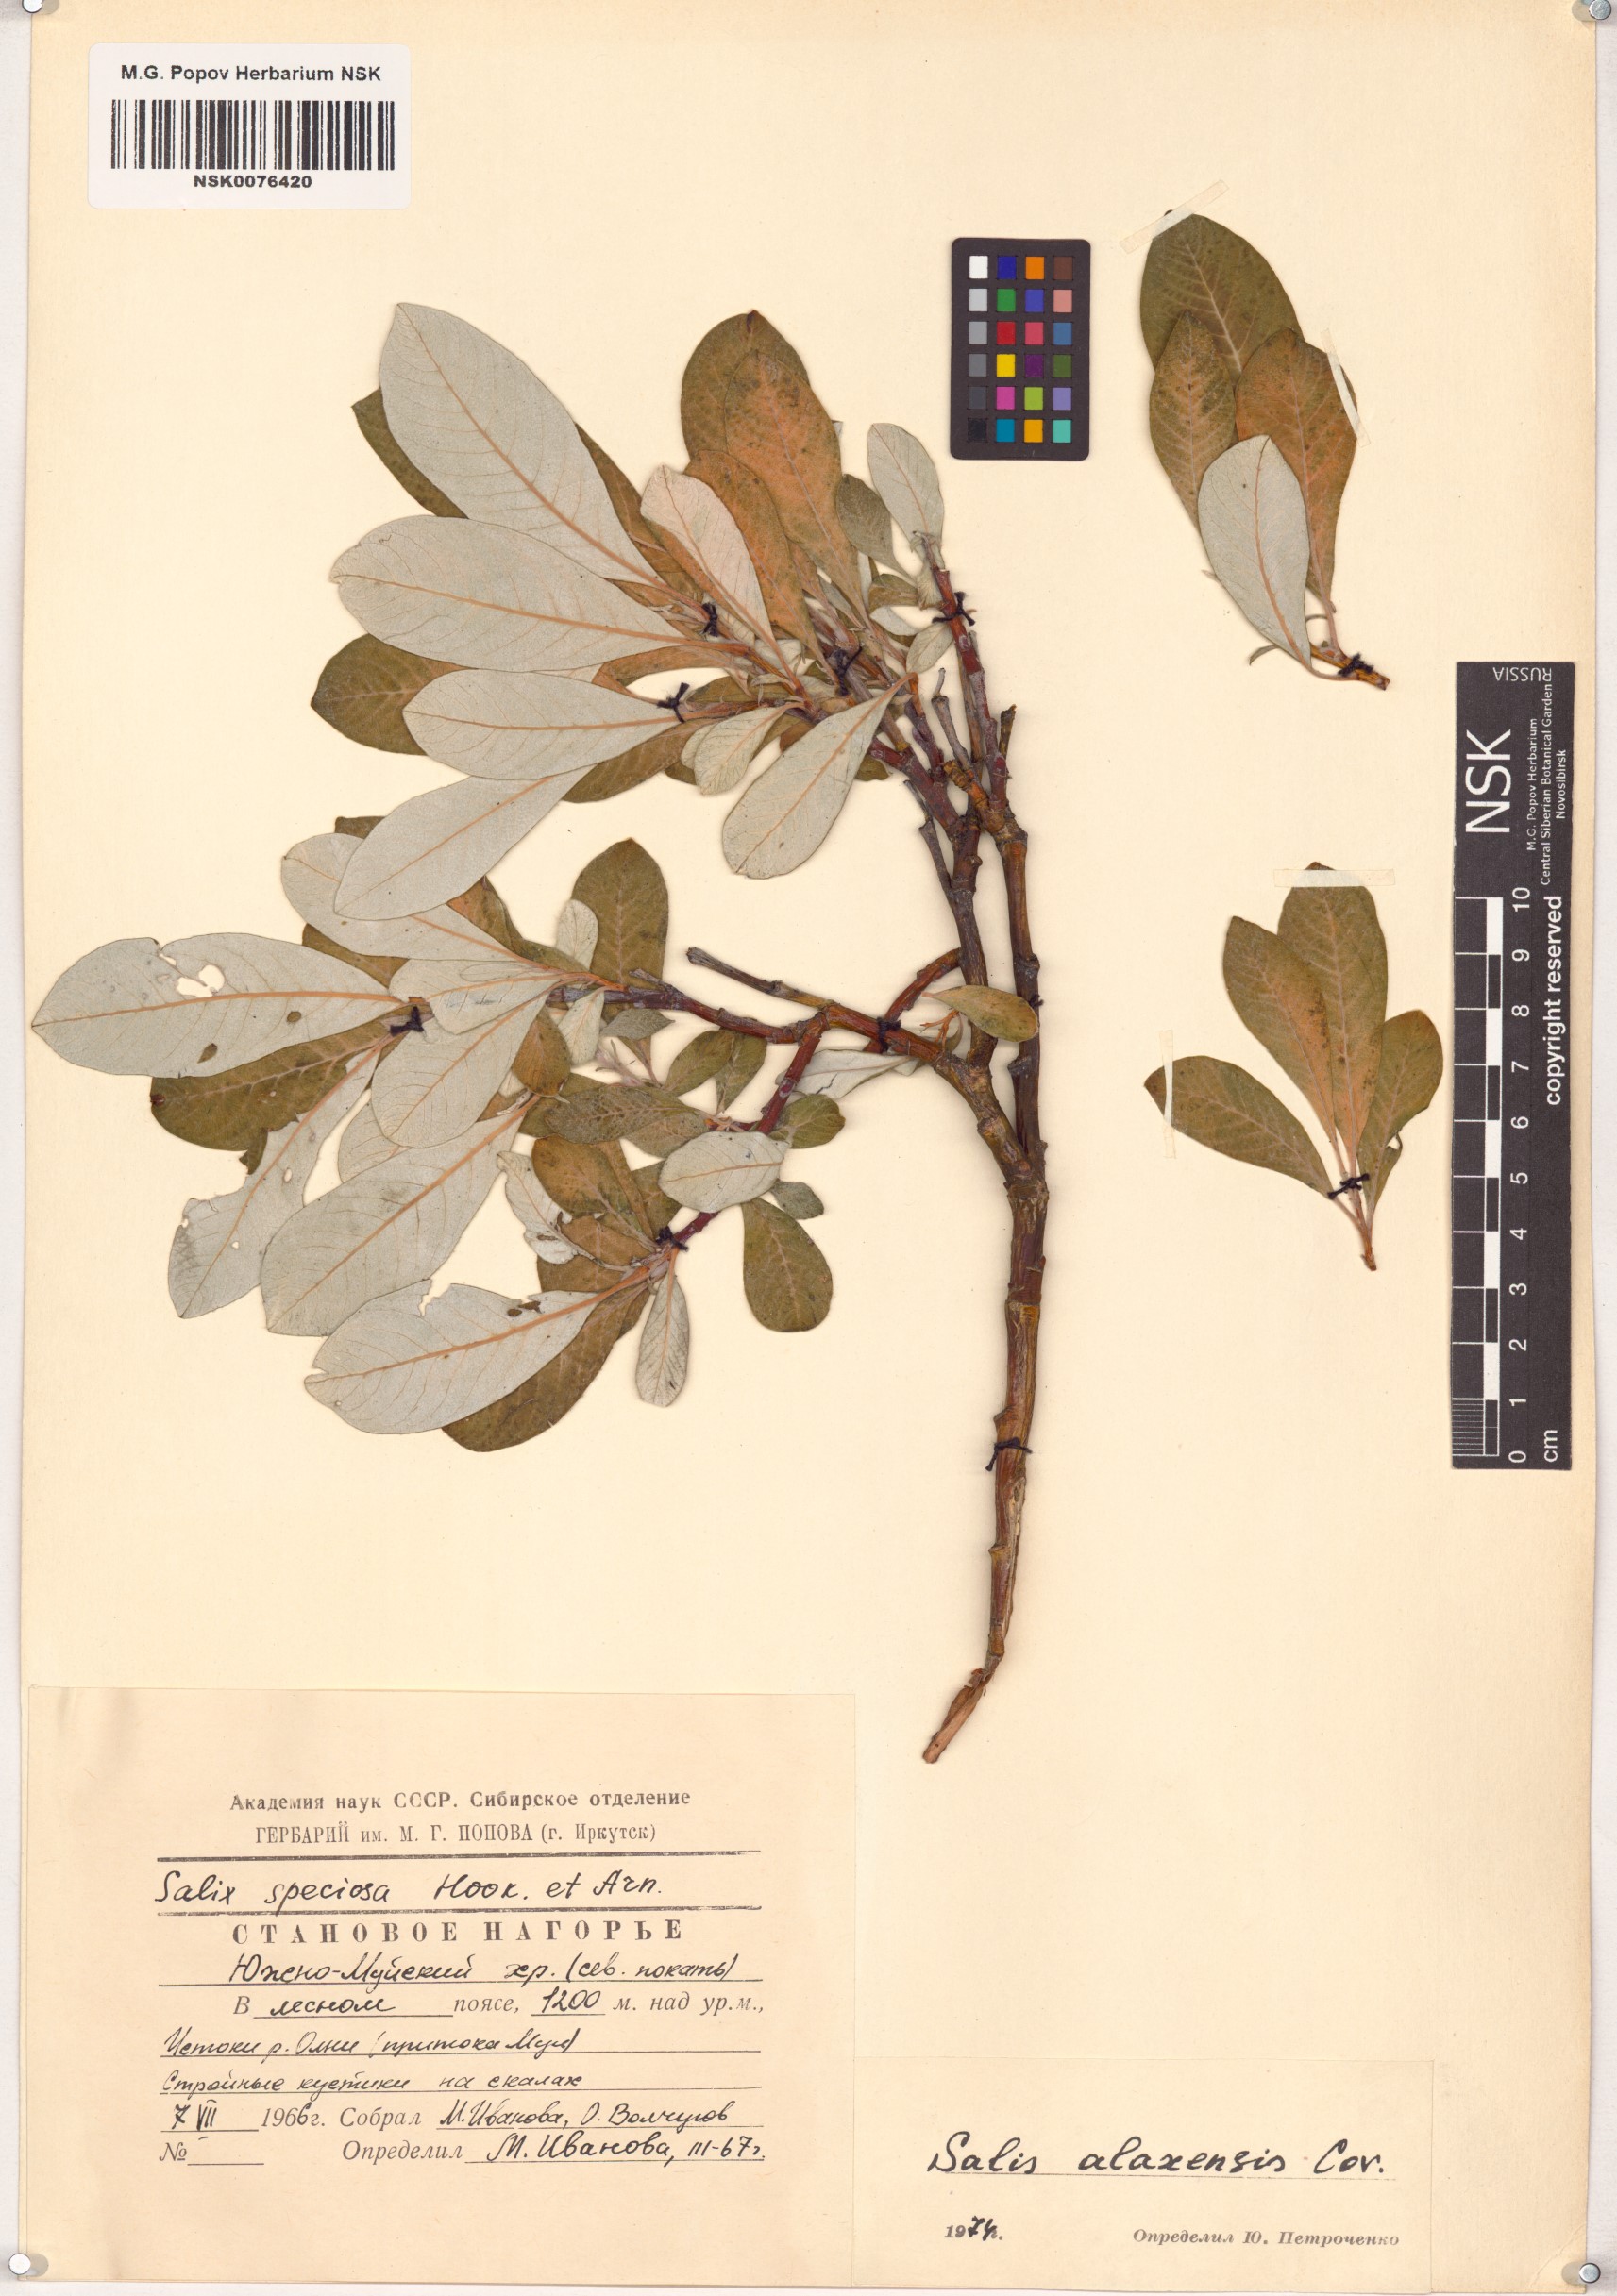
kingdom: Plantae
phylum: Tracheophyta
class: Magnoliopsida
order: Malpighiales
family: Salicaceae
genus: Salix
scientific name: Salix alaxensis
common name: Feltleaf willow
